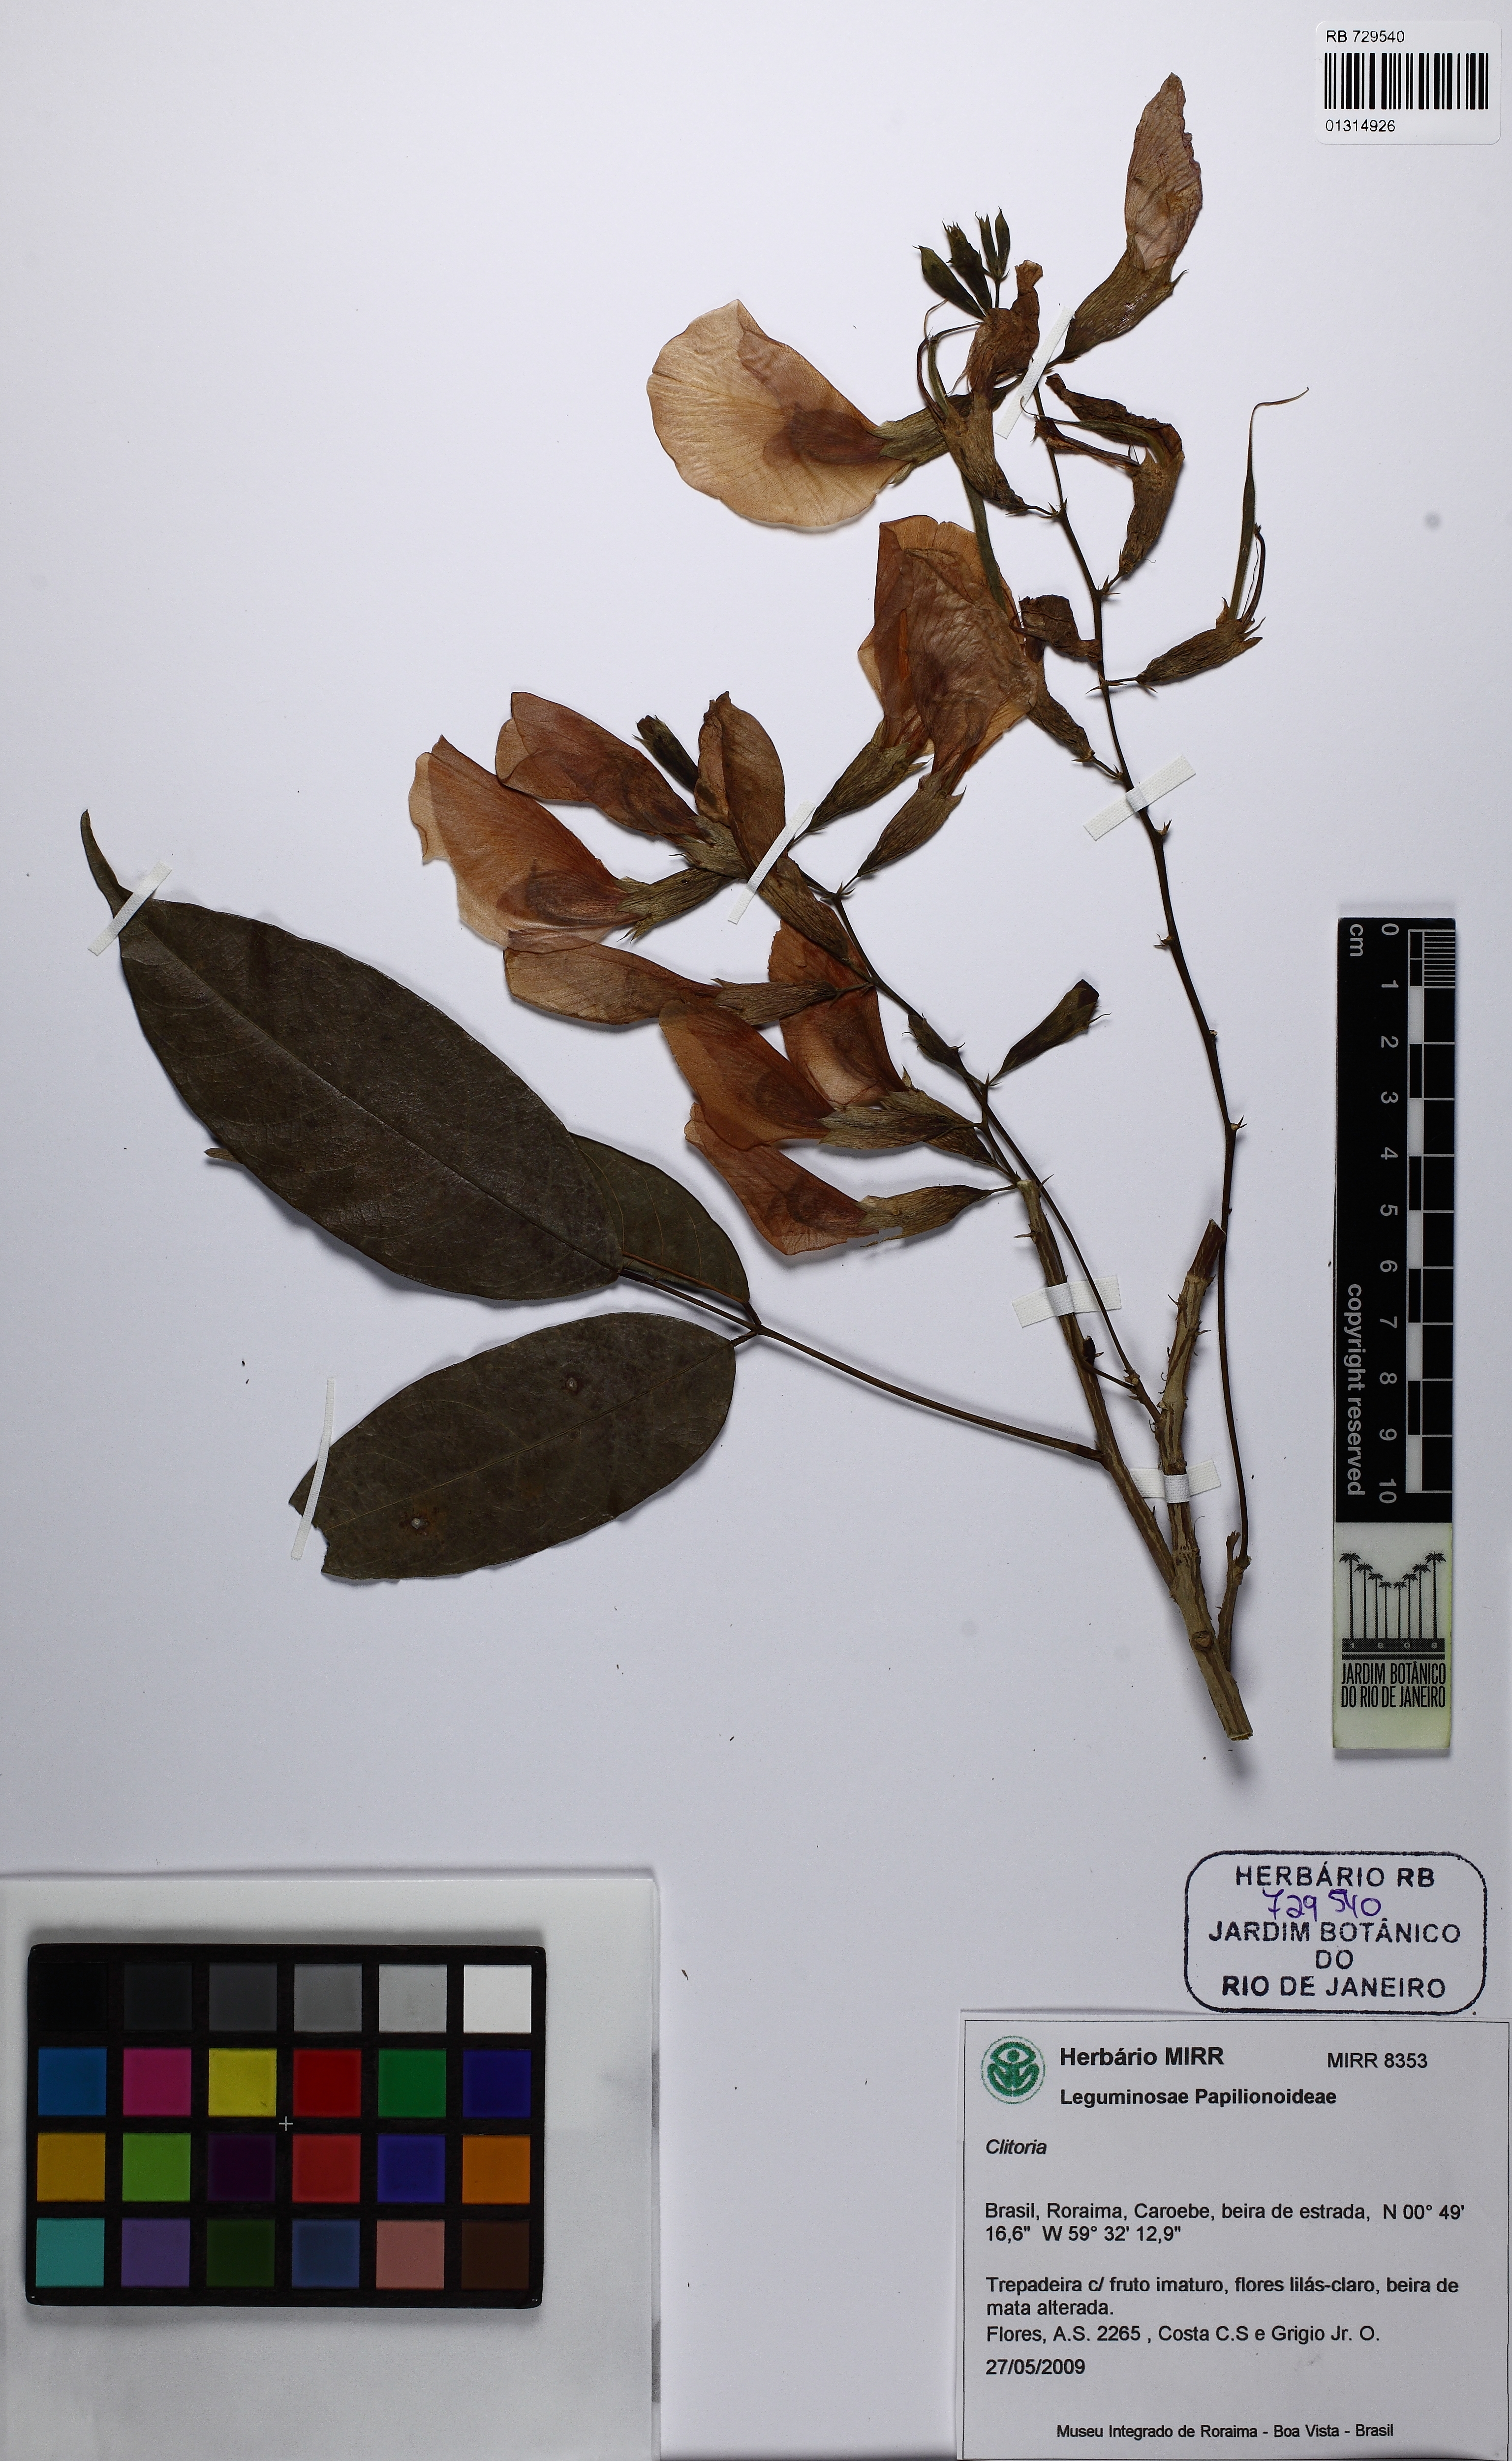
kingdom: Plantae
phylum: Tracheophyta
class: Magnoliopsida
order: Fabales
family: Fabaceae
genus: Clitoria
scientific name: Clitoria
